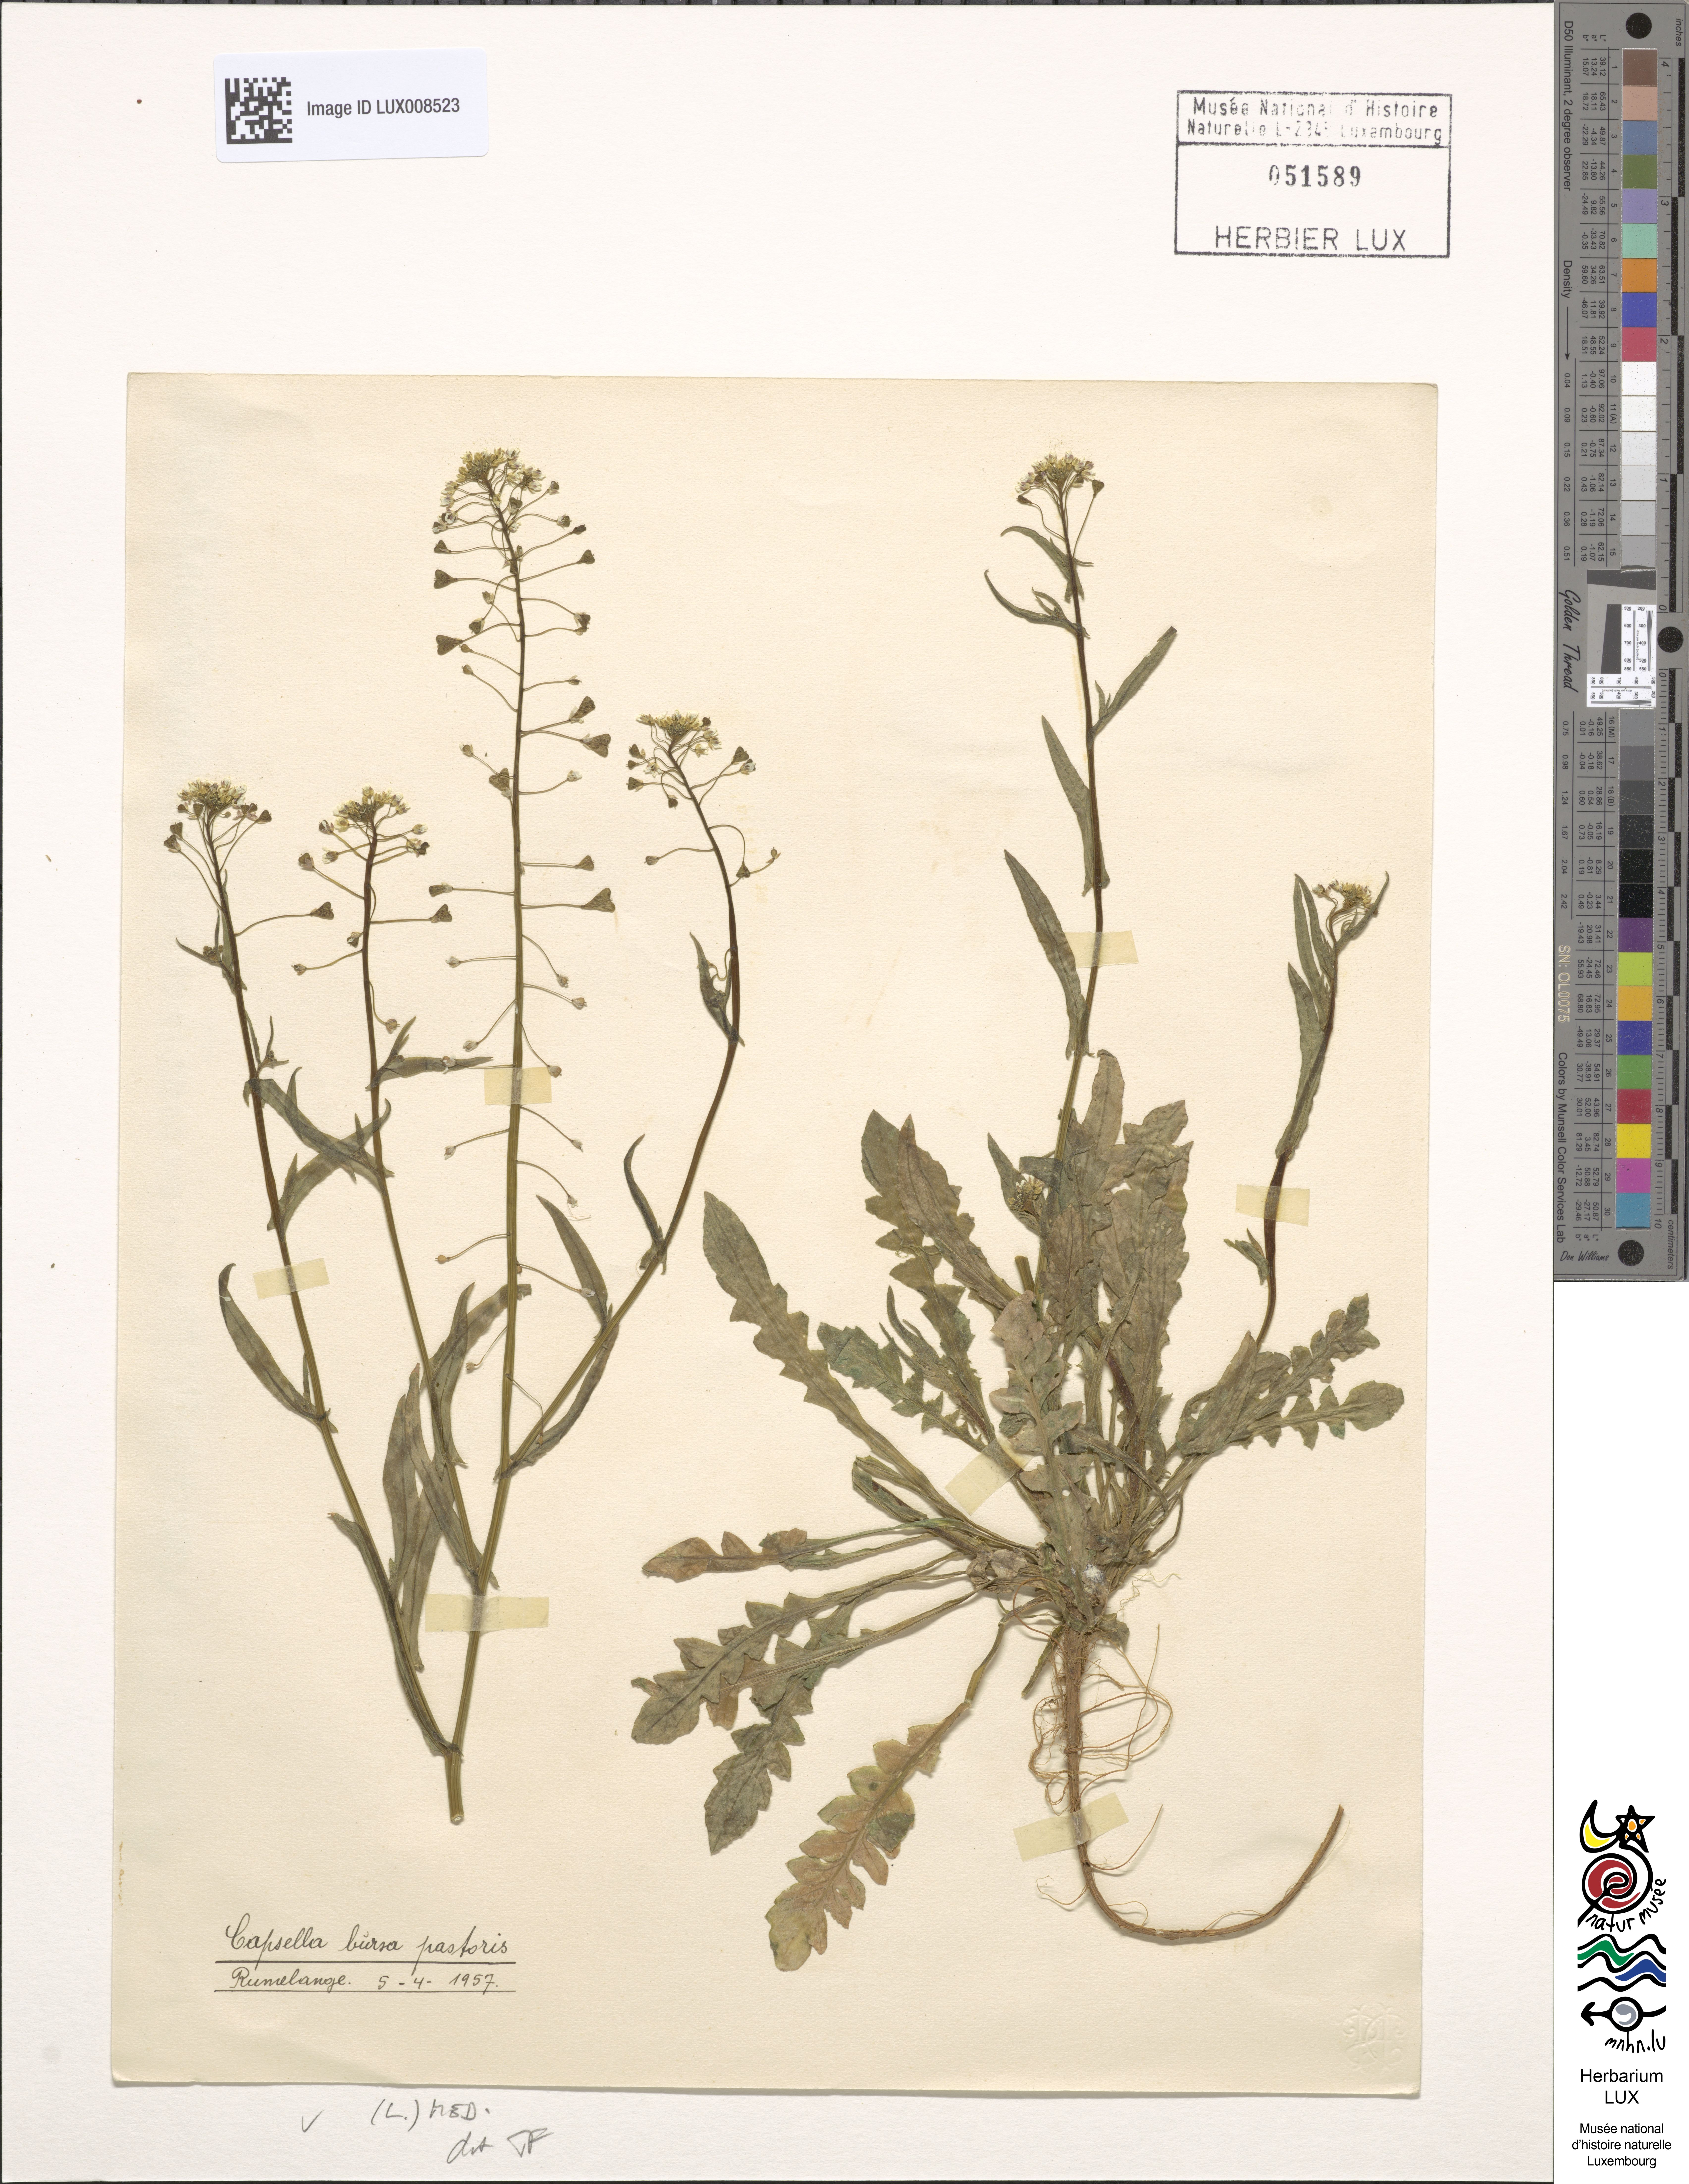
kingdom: Plantae
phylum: Tracheophyta
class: Magnoliopsida
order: Brassicales
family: Brassicaceae
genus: Capsella
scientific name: Capsella bursa-pastoris
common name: Shepherd's purse
